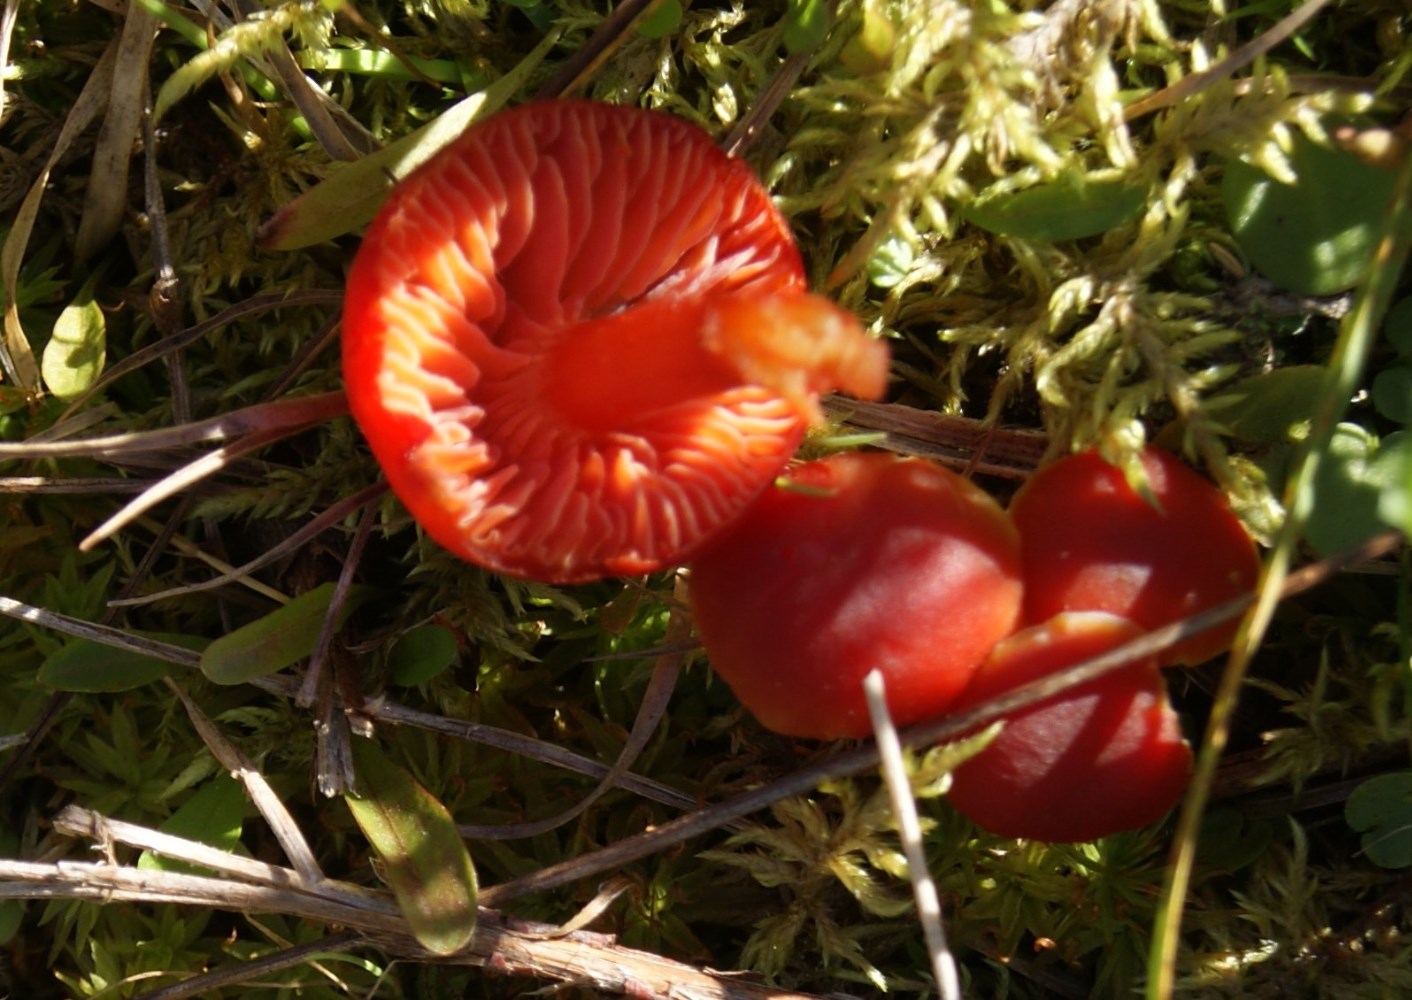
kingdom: Fungi
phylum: Basidiomycota
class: Agaricomycetes
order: Agaricales
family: Hygrophoraceae
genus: Hygrocybe
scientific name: Hygrocybe phaeococcinea
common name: sortdugget vokshat
